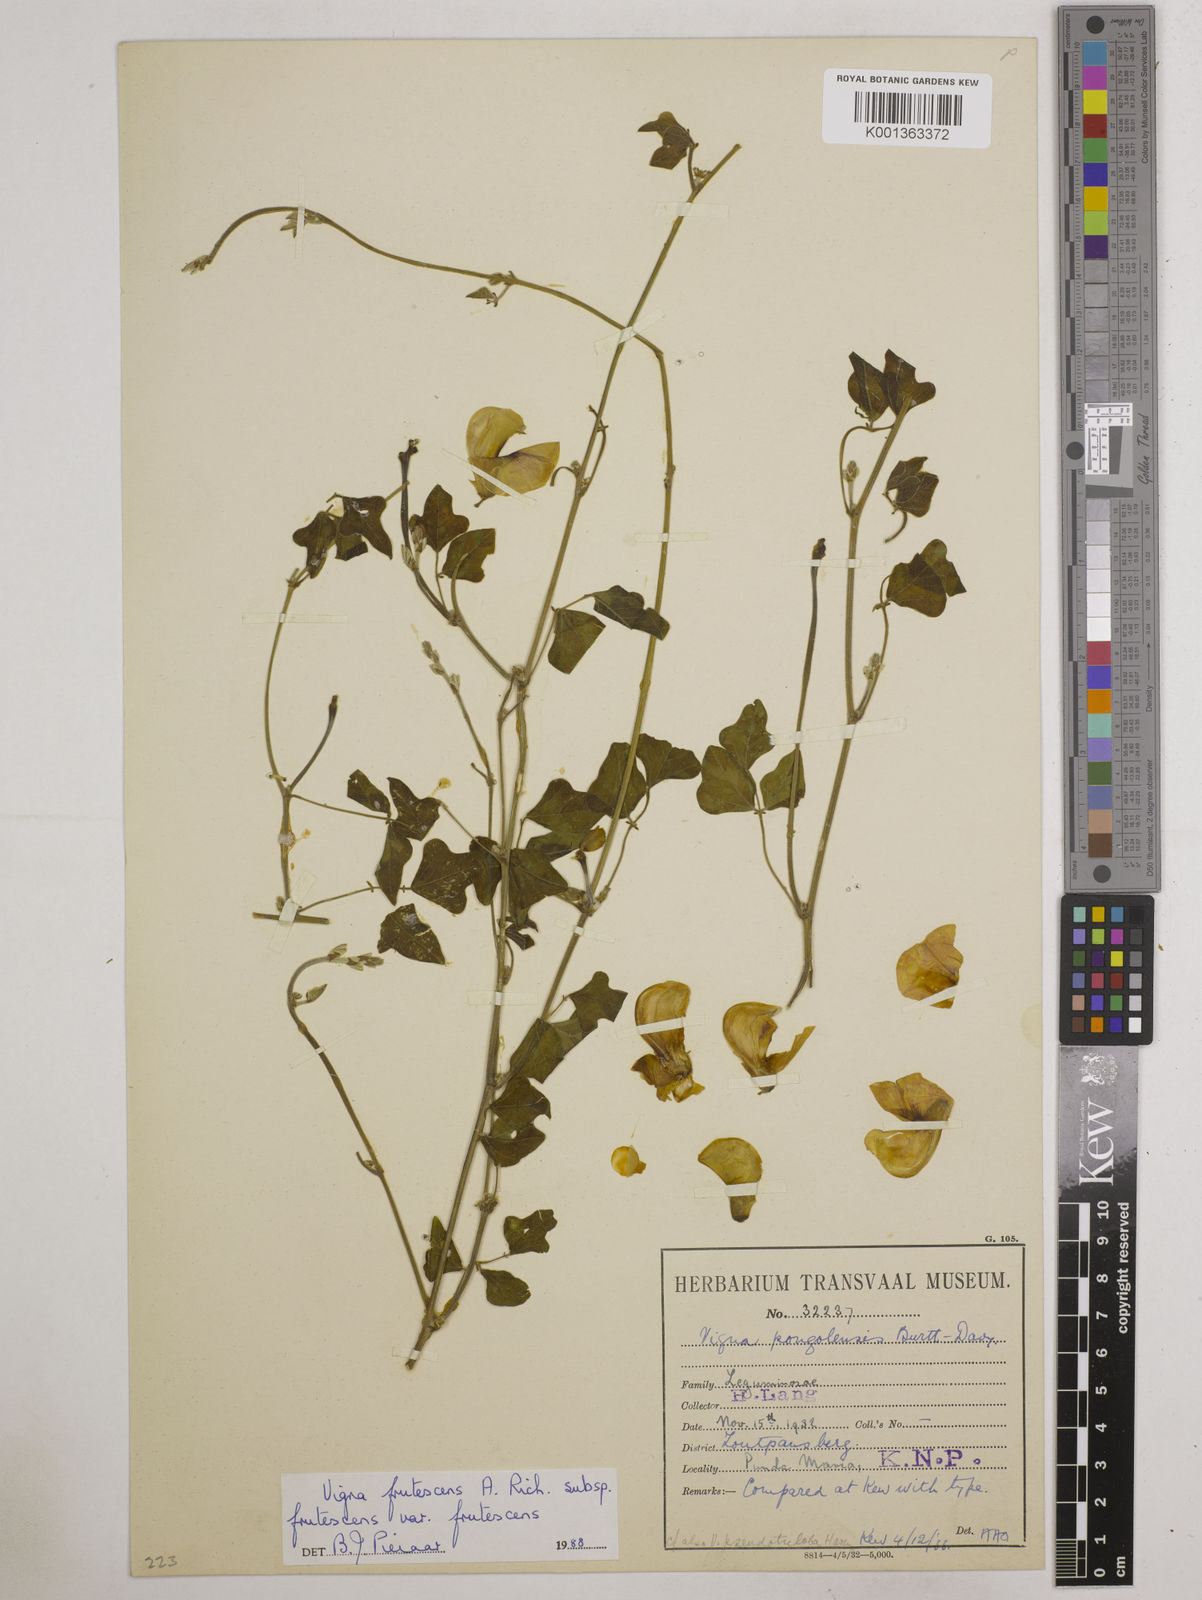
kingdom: Plantae
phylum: Tracheophyta
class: Magnoliopsida
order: Fabales
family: Fabaceae
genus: Vigna
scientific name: Vigna frutescens
